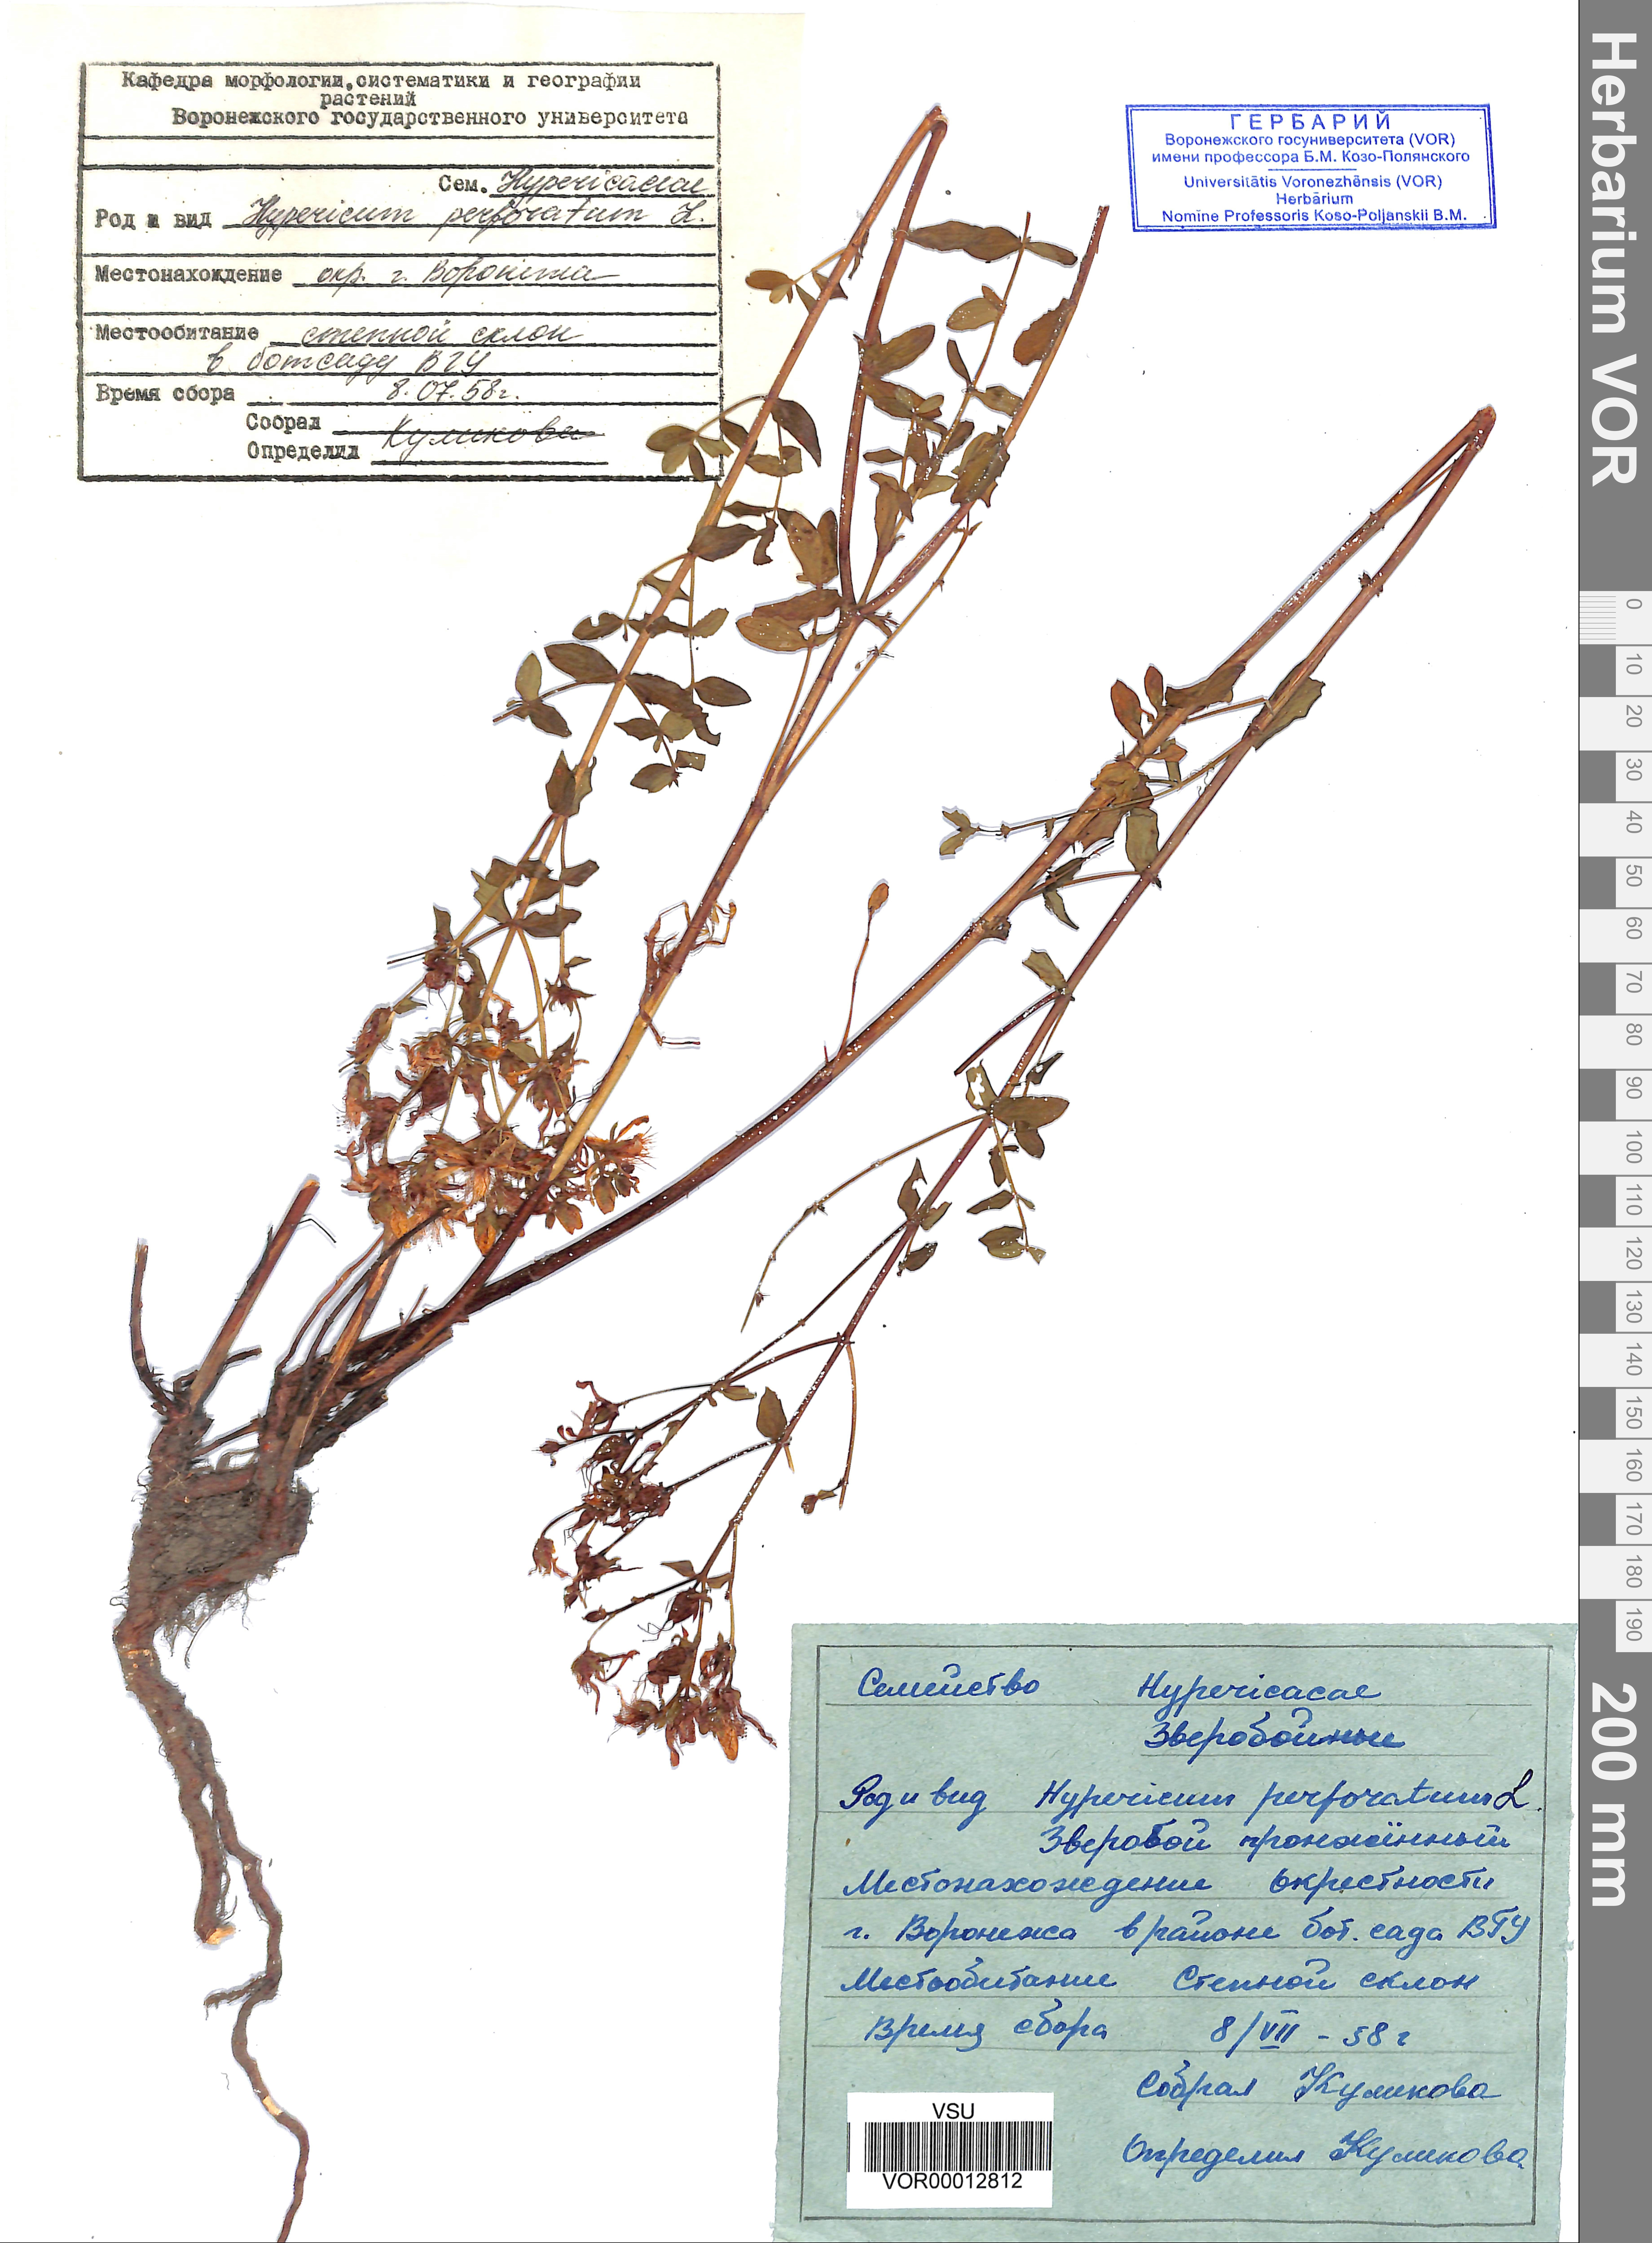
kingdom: Plantae
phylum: Tracheophyta
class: Magnoliopsida
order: Malpighiales
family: Hypericaceae
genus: Hypericum
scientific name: Hypericum perforatum
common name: Common st. johnswort
